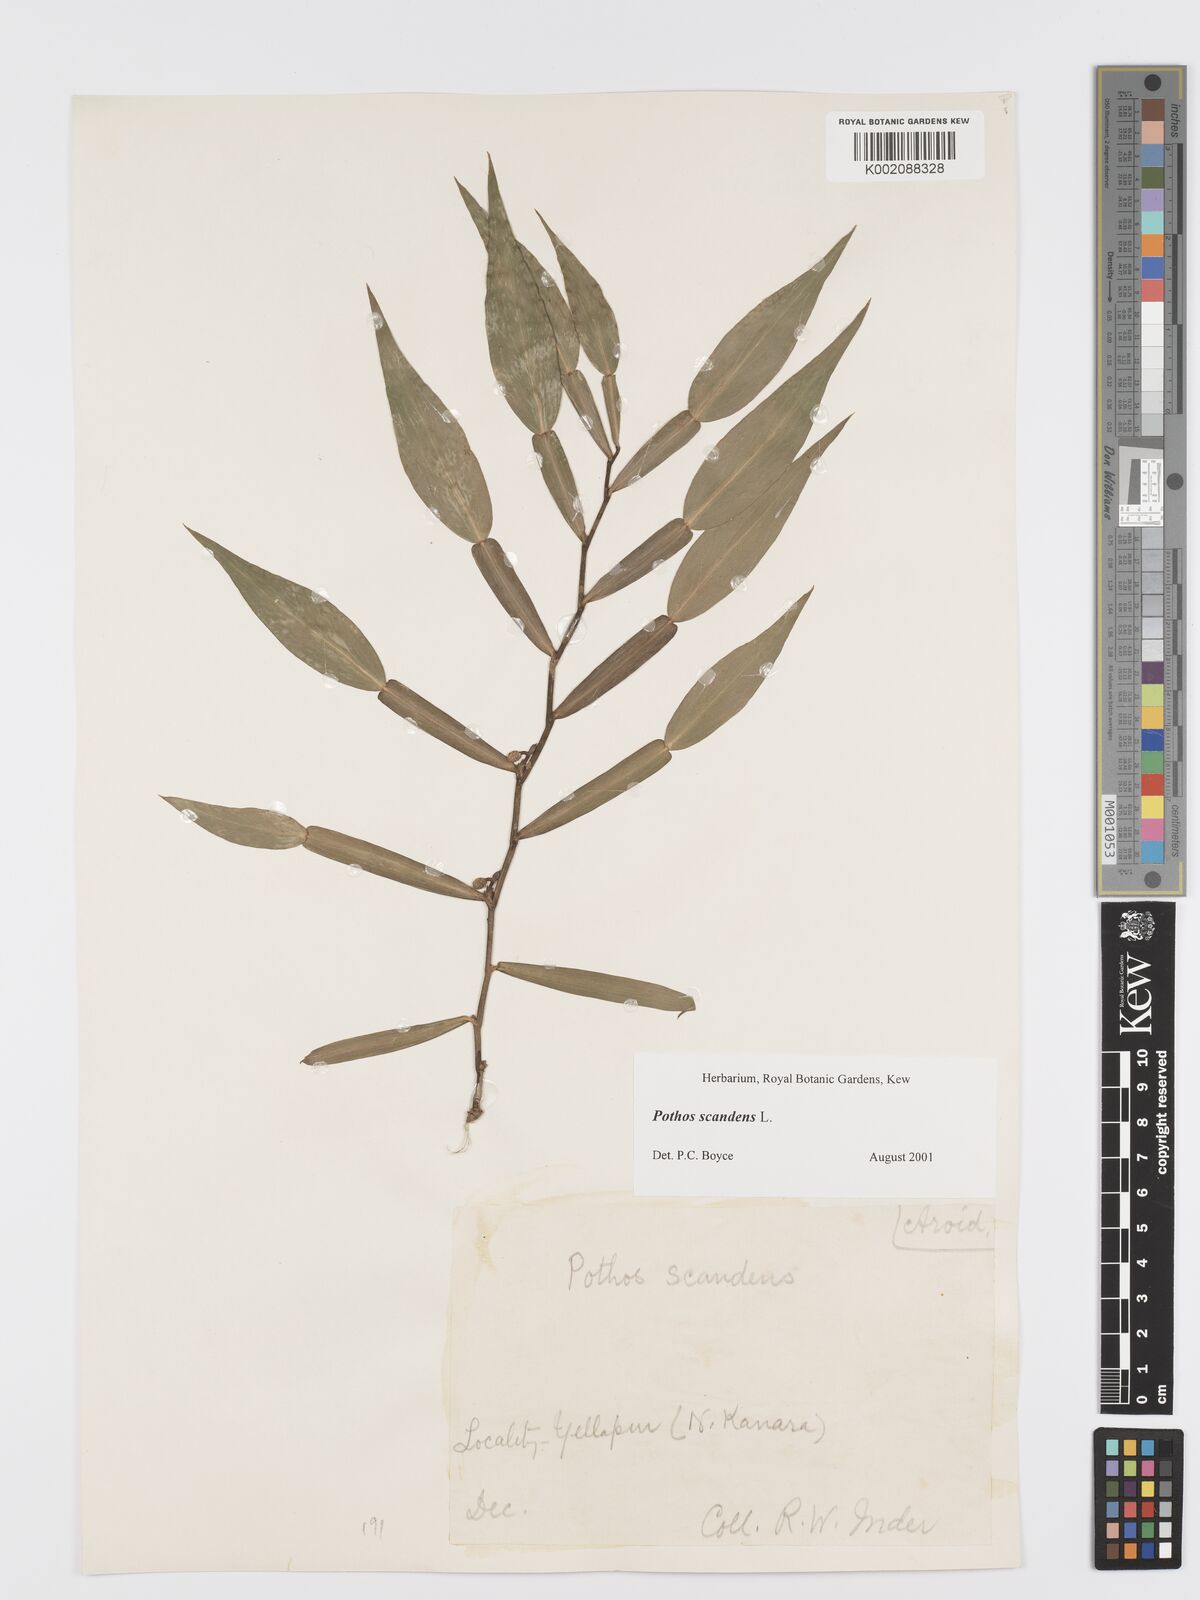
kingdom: Plantae
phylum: Tracheophyta
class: Liliopsida
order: Alismatales
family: Araceae
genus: Pothos
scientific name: Pothos scandens
